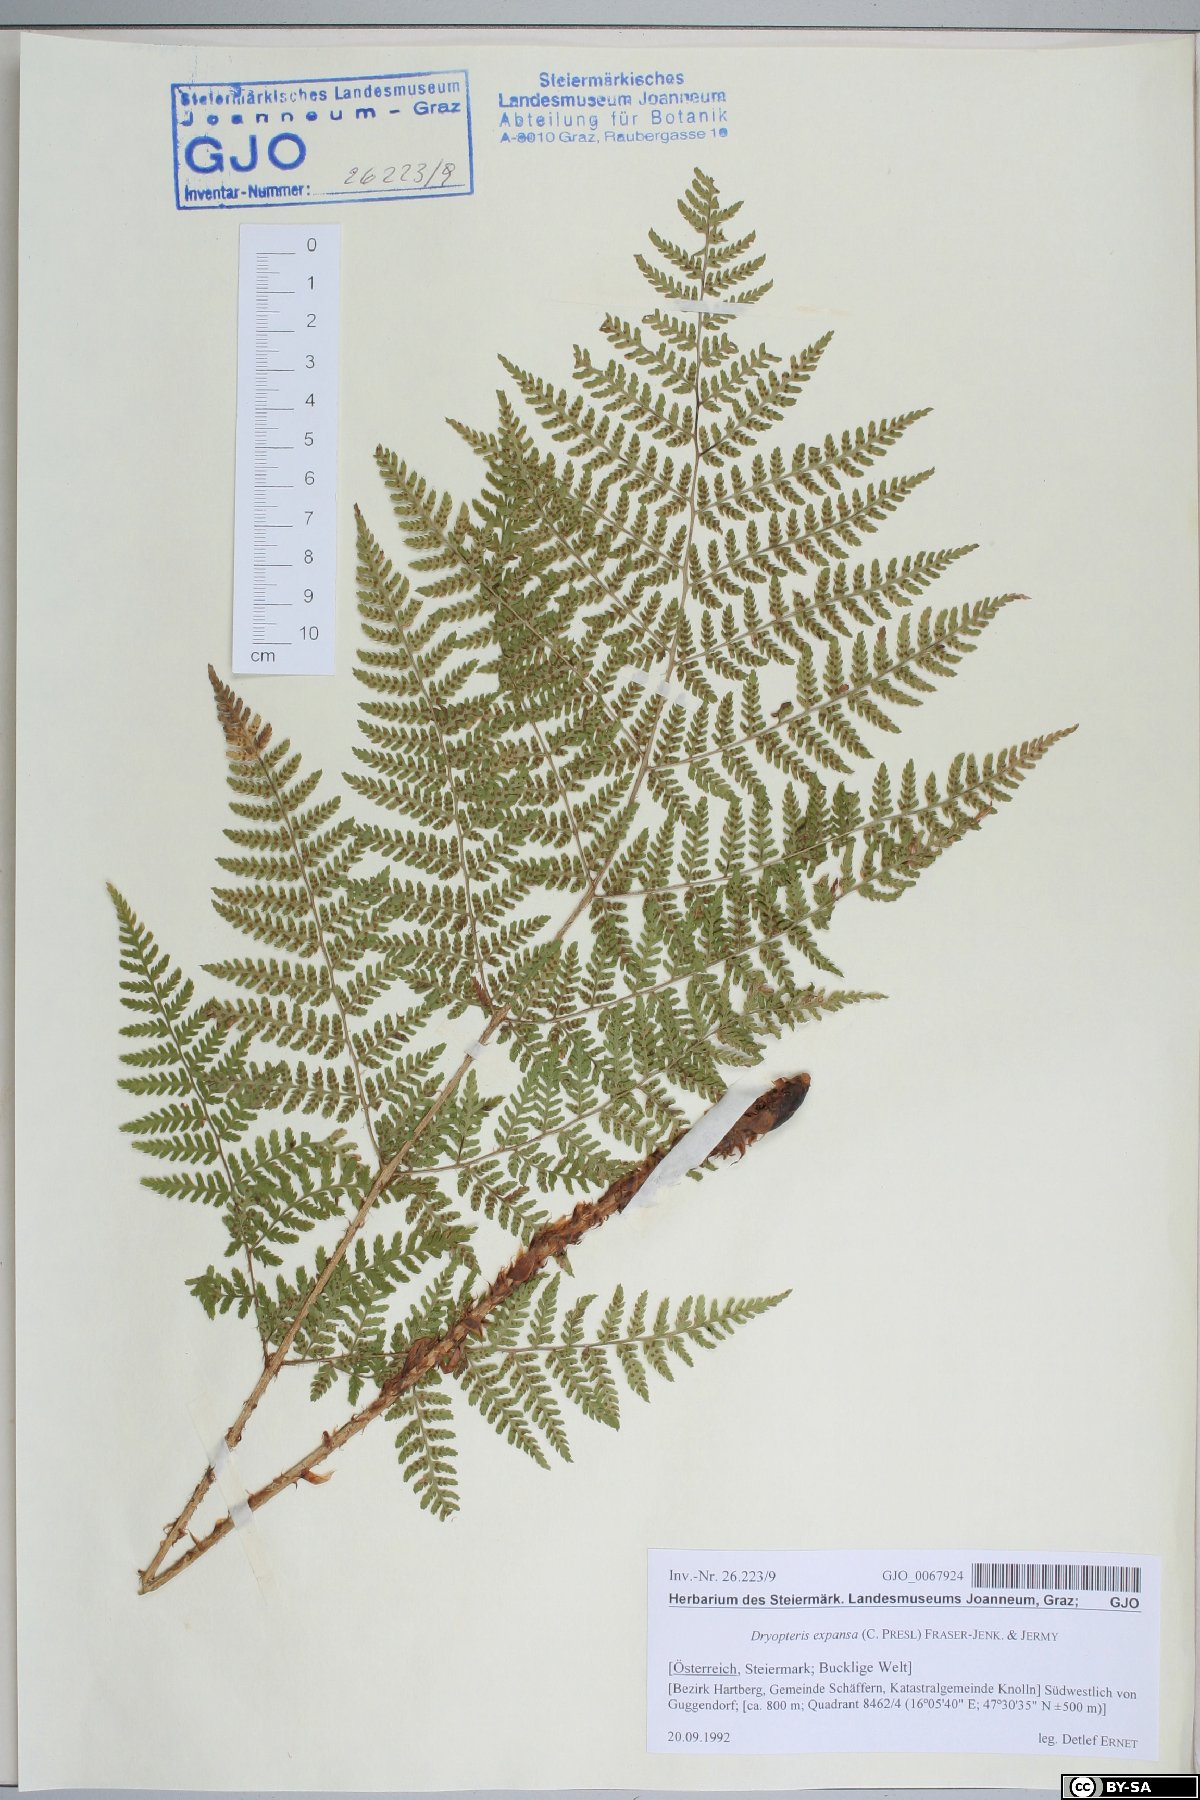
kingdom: Plantae
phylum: Tracheophyta
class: Polypodiopsida
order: Polypodiales
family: Dryopteridaceae
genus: Dryopteris
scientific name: Dryopteris expansa
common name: Northern buckler fern
